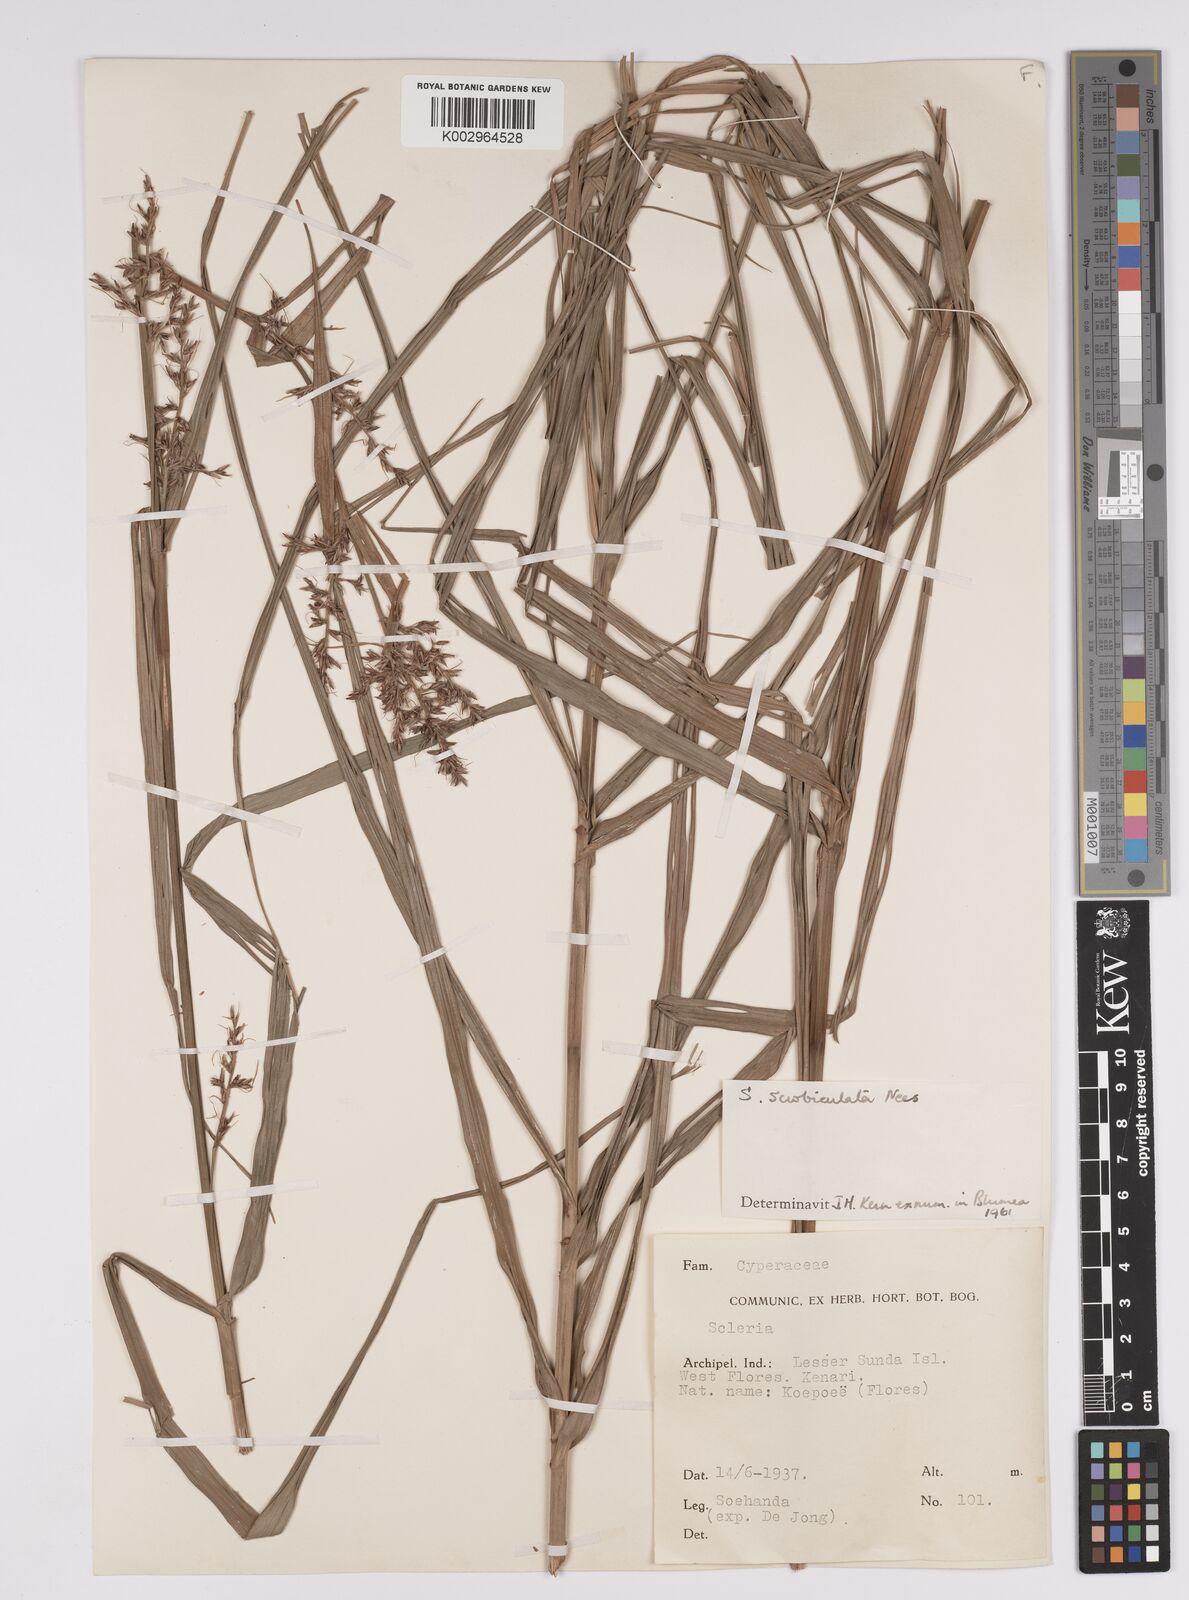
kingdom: Plantae
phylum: Tracheophyta
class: Liliopsida
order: Poales
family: Cyperaceae
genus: Scleria
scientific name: Scleria scrobiculata
